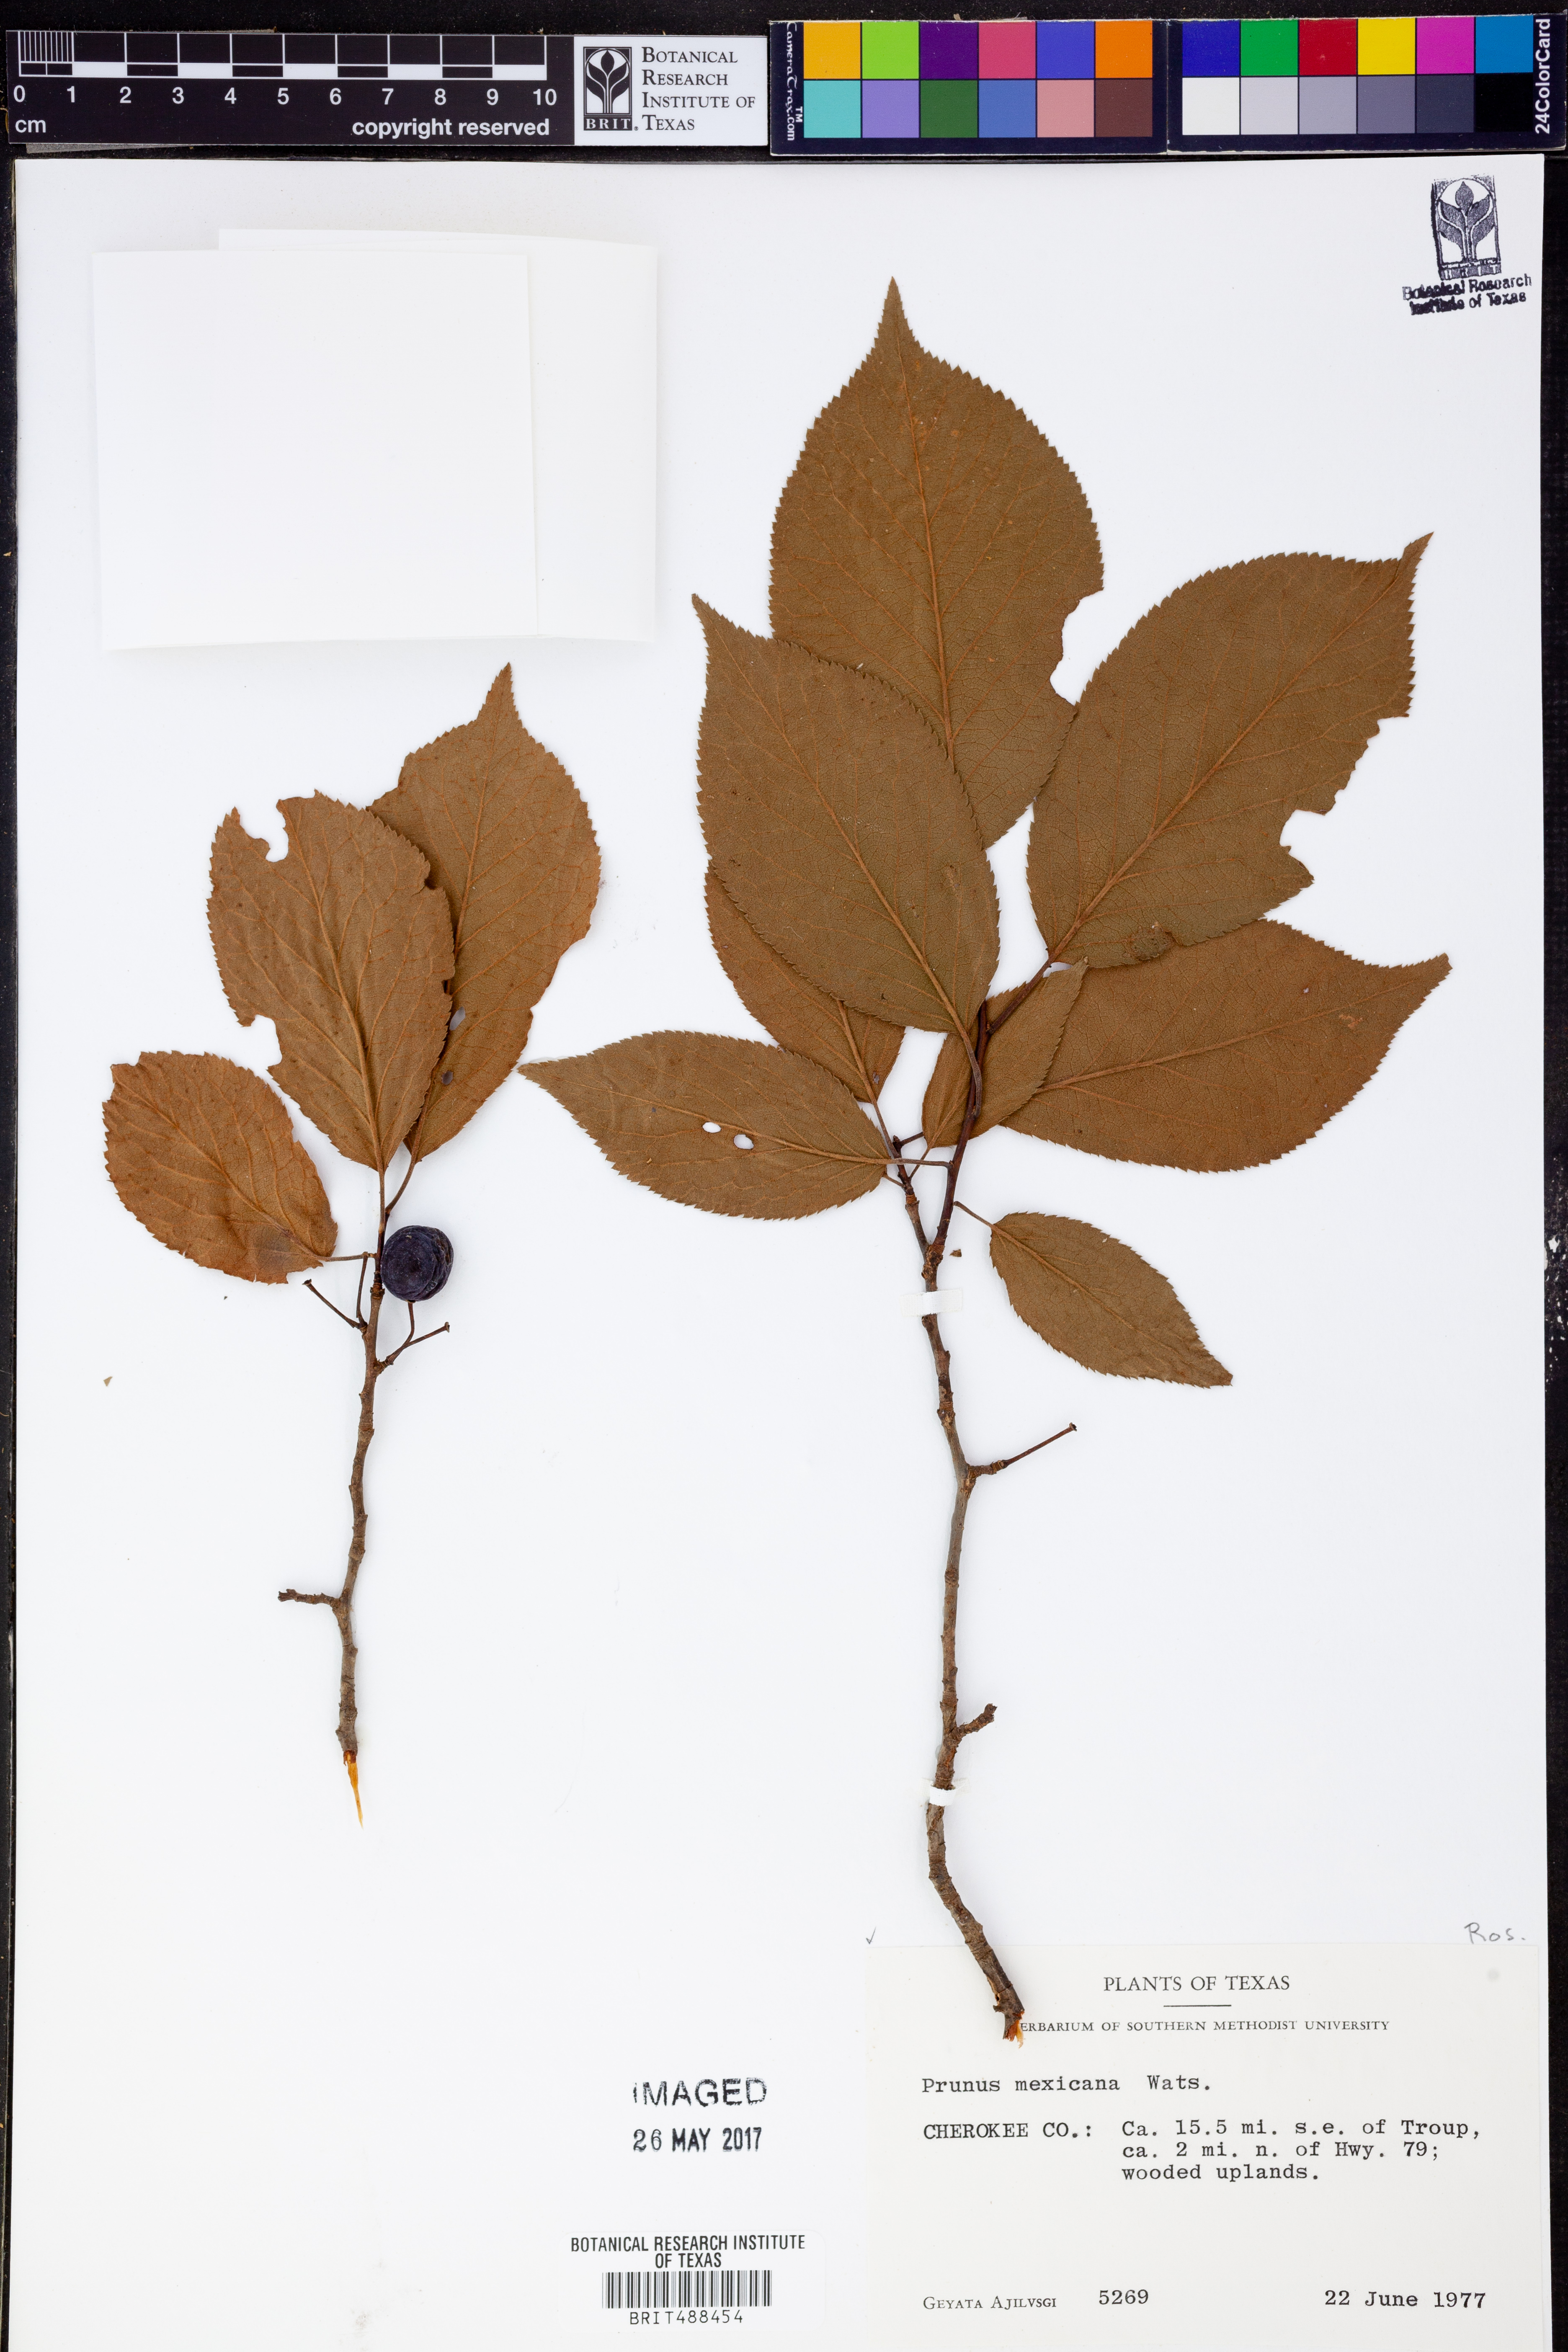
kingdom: Plantae
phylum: Tracheophyta
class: Magnoliopsida
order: Rosales
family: Rosaceae
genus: Prunus
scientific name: Prunus mexicana
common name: Mexican plum
